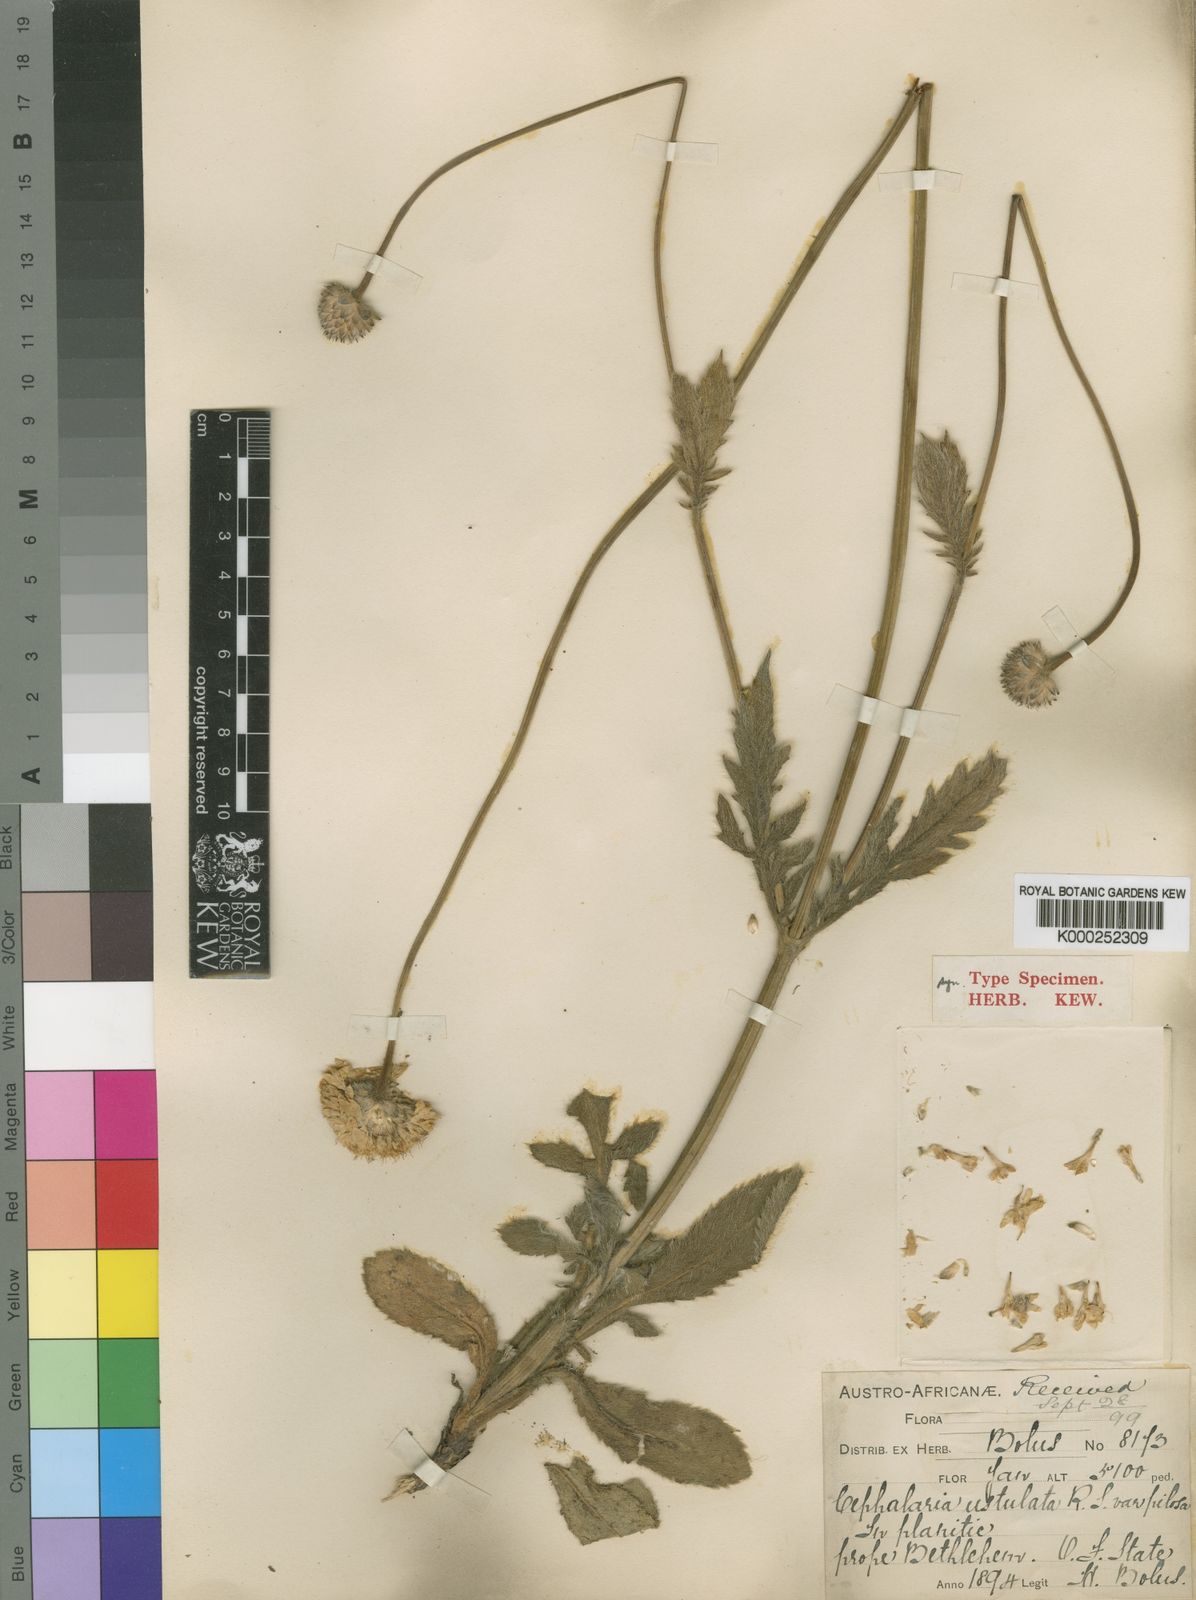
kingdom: Plantae
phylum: Tracheophyta
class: Magnoliopsida
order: Dipsacales
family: Caprifoliaceae
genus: Cephalaria
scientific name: Cephalaria zeyheriana
